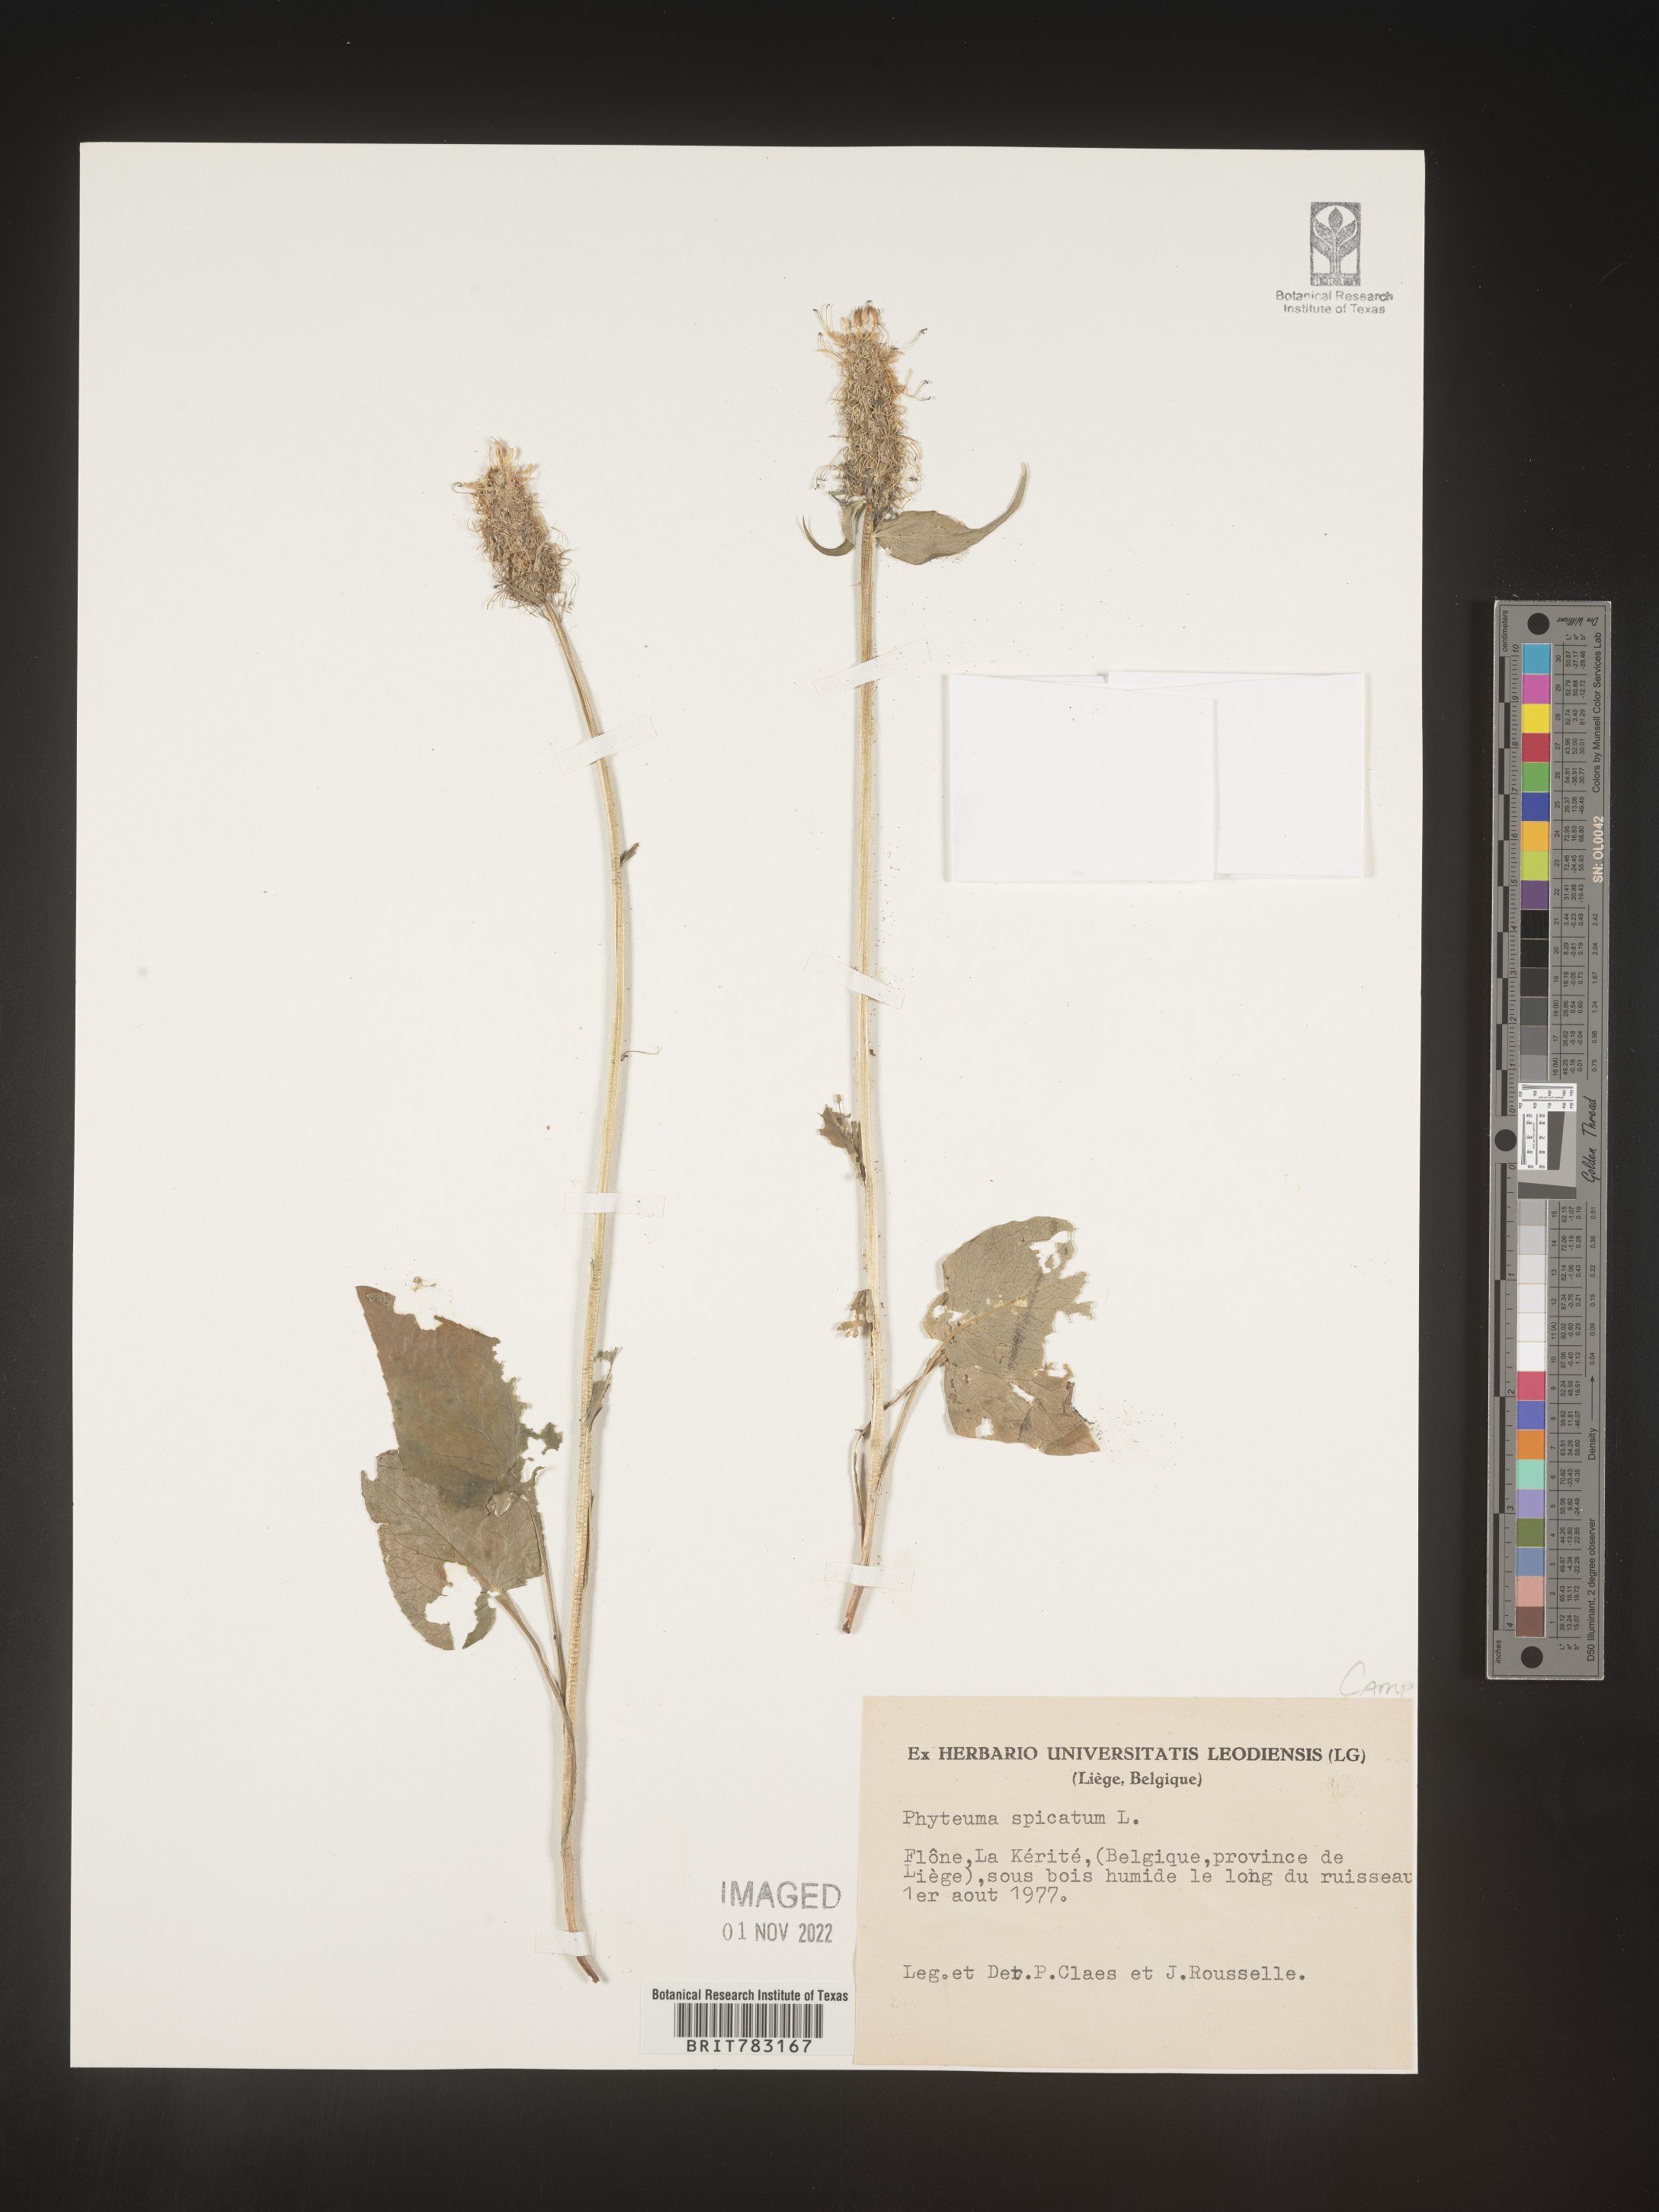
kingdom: Plantae
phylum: Tracheophyta
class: Magnoliopsida
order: Asterales
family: Campanulaceae
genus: Phyteuma
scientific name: Phyteuma
